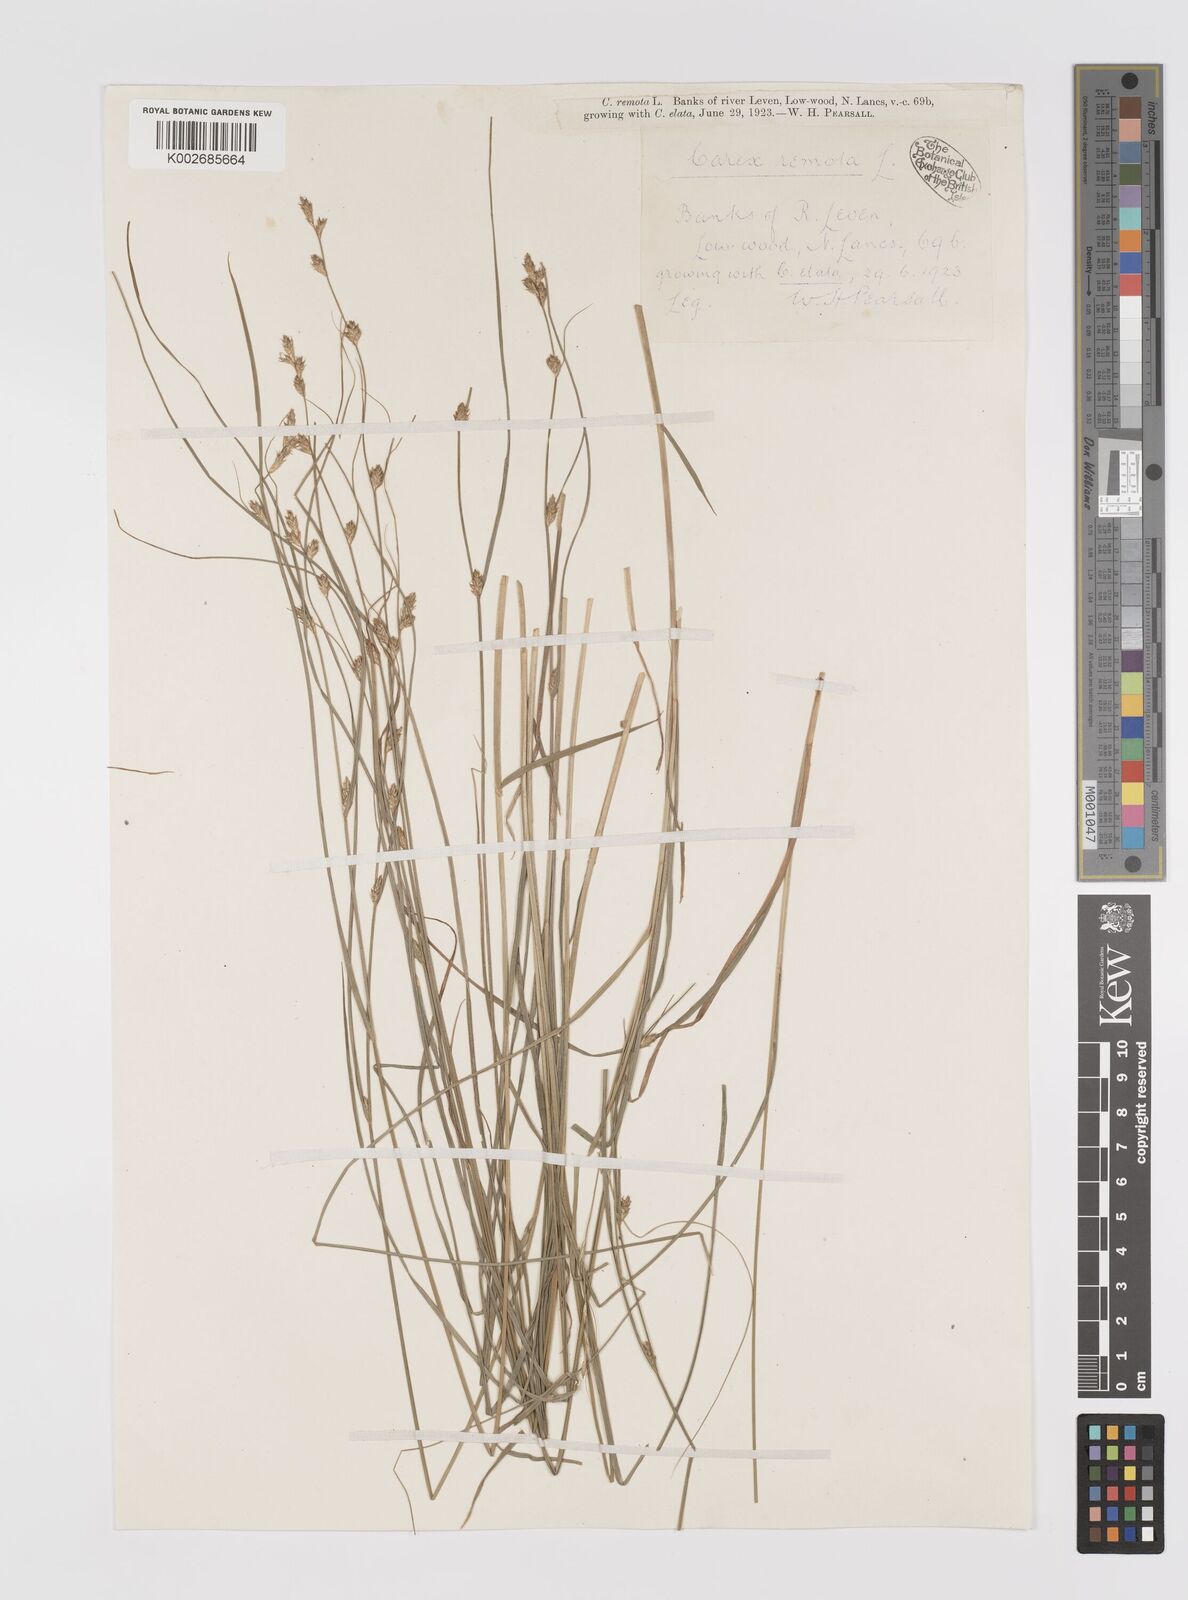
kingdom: Plantae
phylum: Tracheophyta
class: Liliopsida
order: Poales
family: Cyperaceae
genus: Carex
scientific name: Carex remota
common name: Remote sedge
